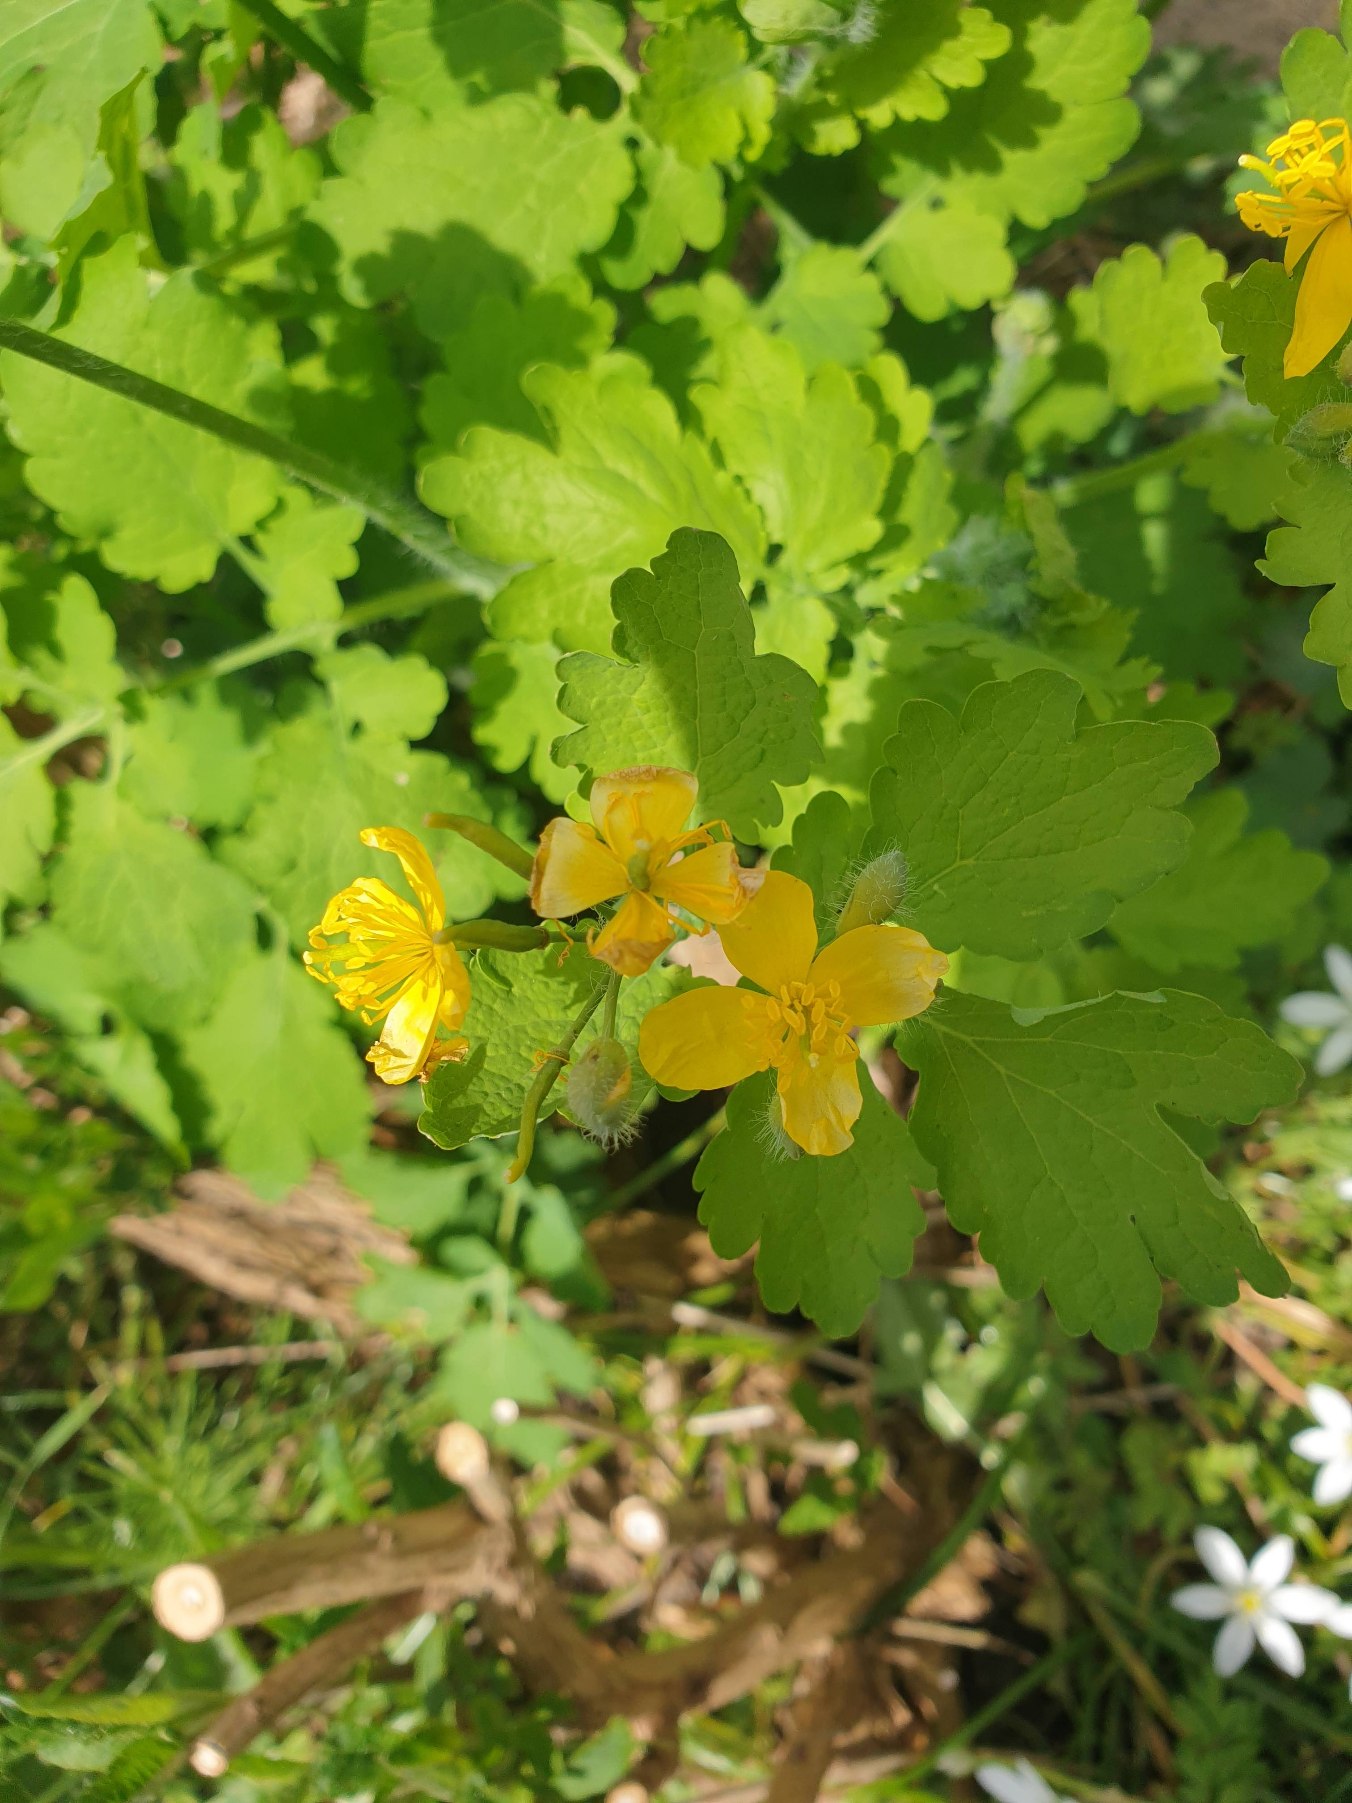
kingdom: Plantae
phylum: Tracheophyta
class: Magnoliopsida
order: Ranunculales
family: Papaveraceae
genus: Chelidonium
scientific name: Chelidonium majus
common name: Svaleurt
